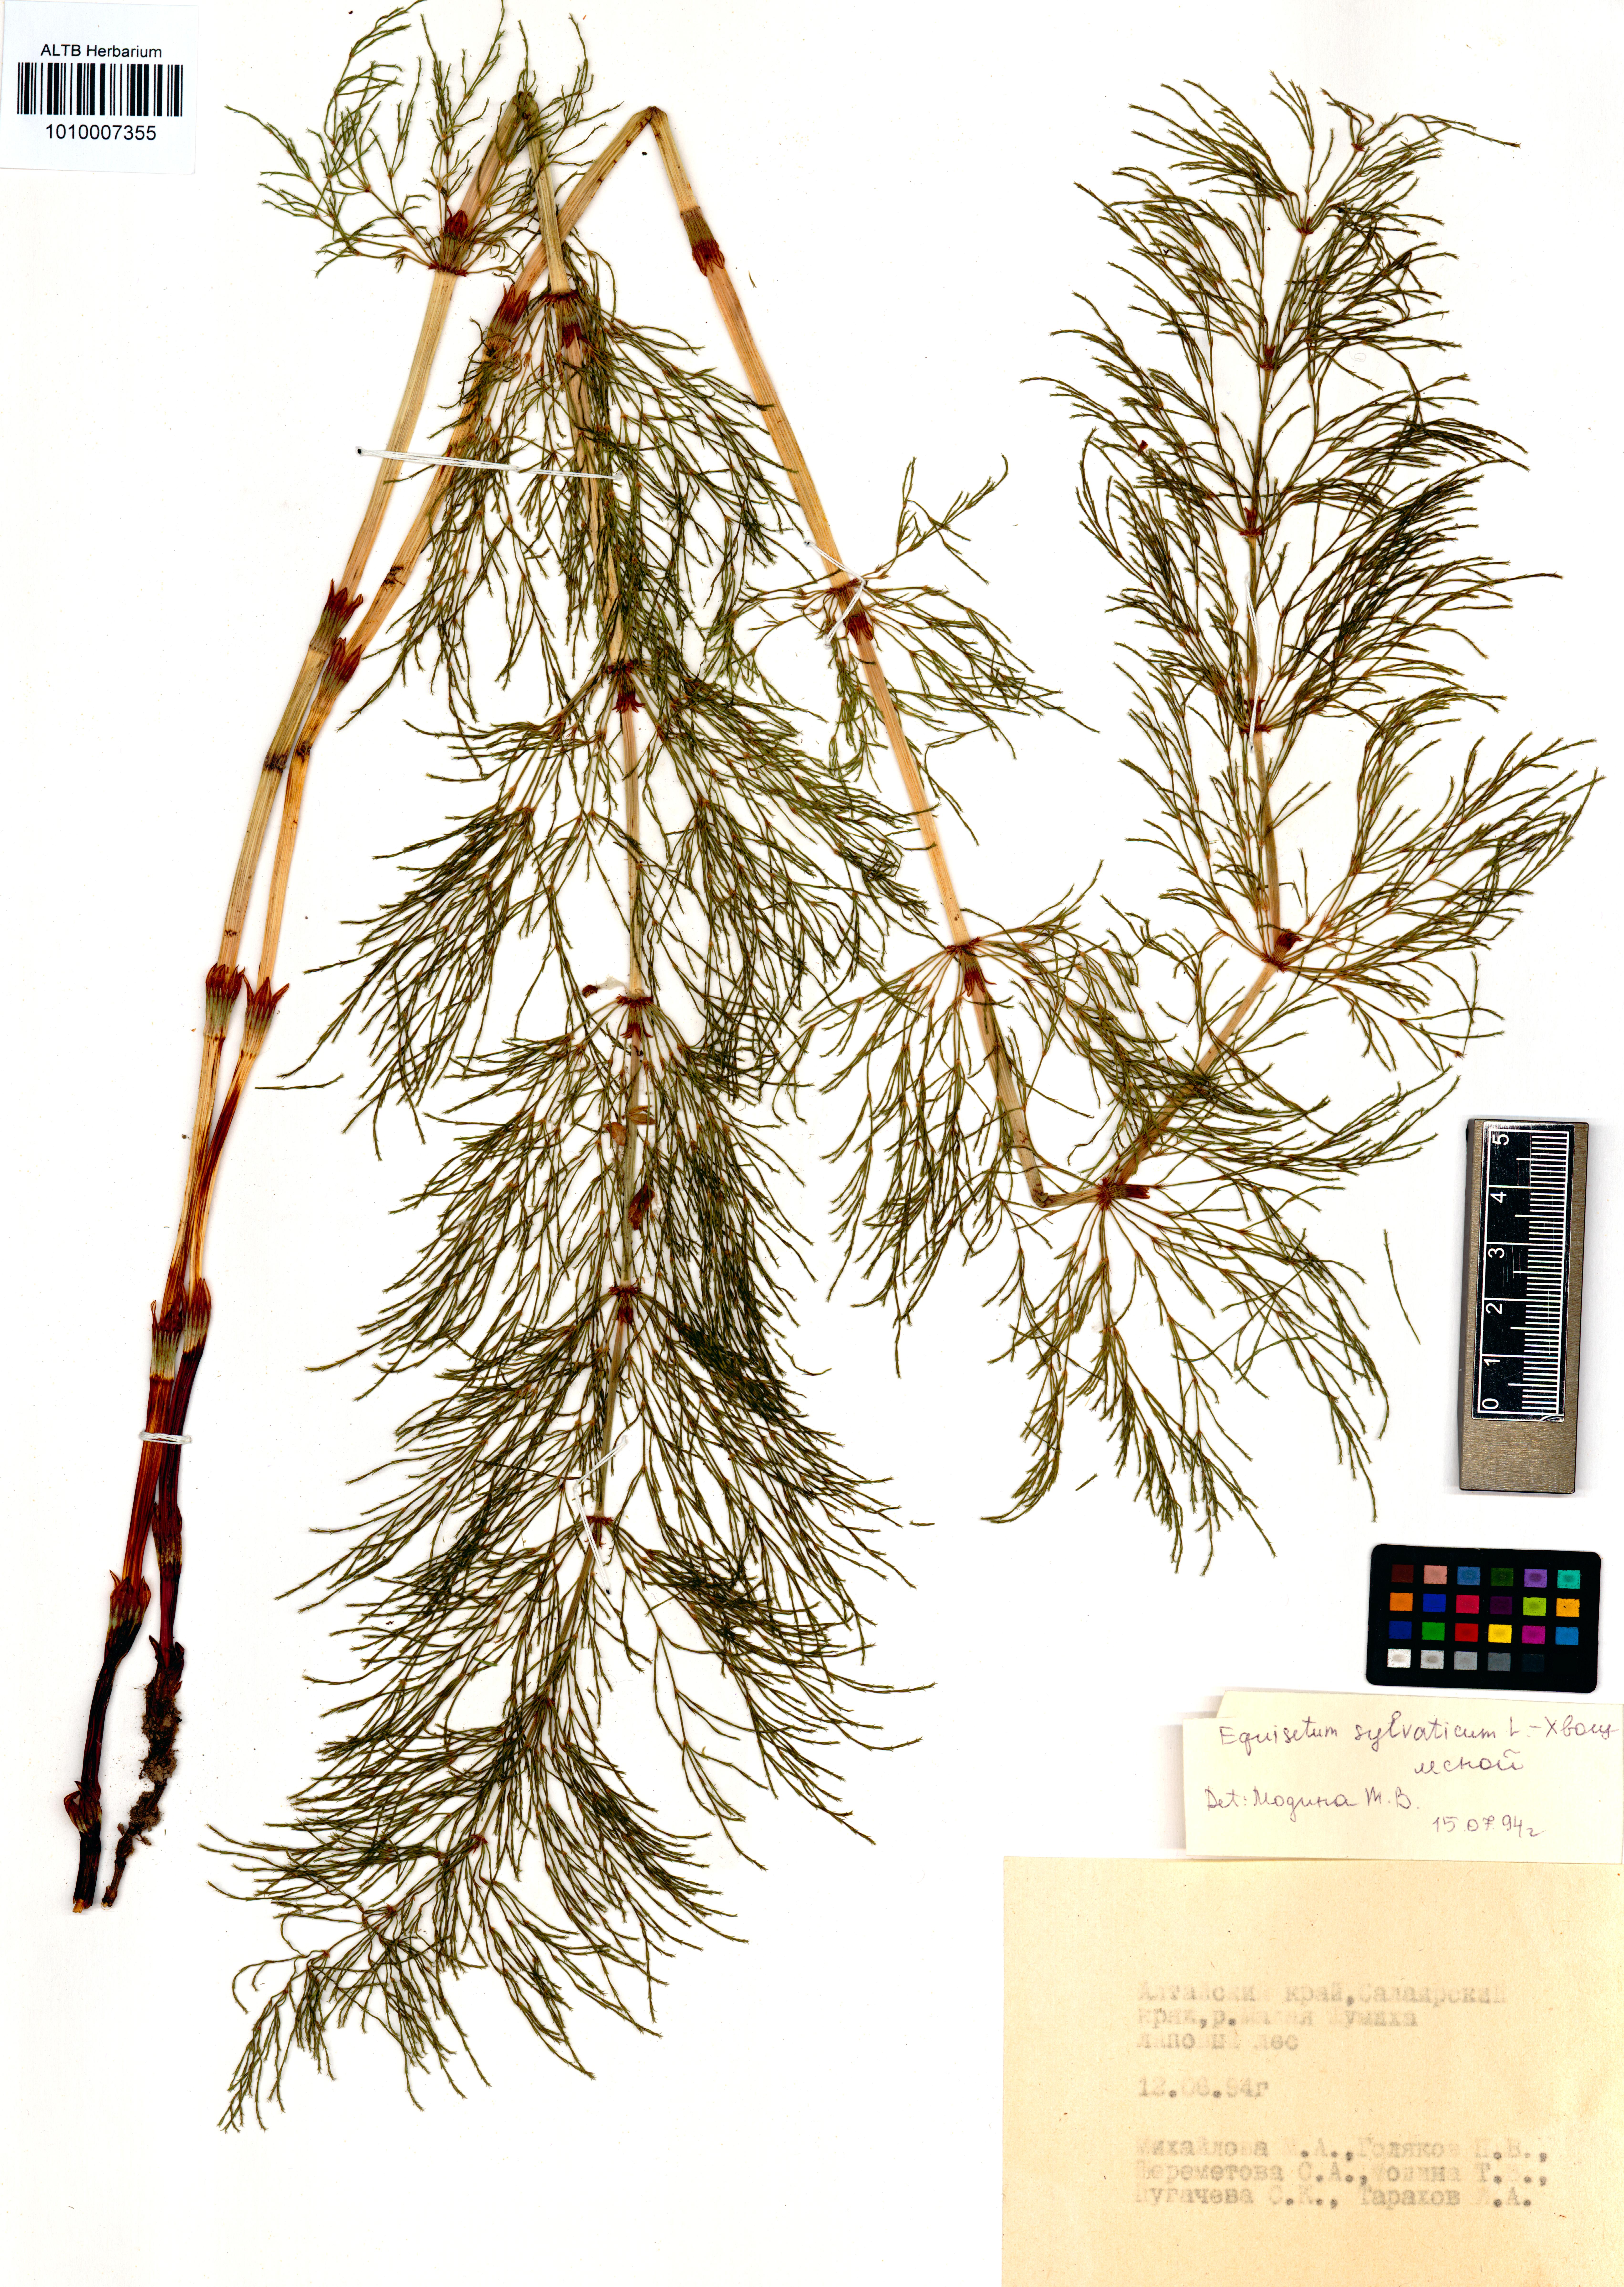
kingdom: Plantae
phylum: Tracheophyta
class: Polypodiopsida
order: Equisetales
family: Equisetaceae
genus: Equisetum
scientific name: Equisetum sylvaticum
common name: Wood horsetail
